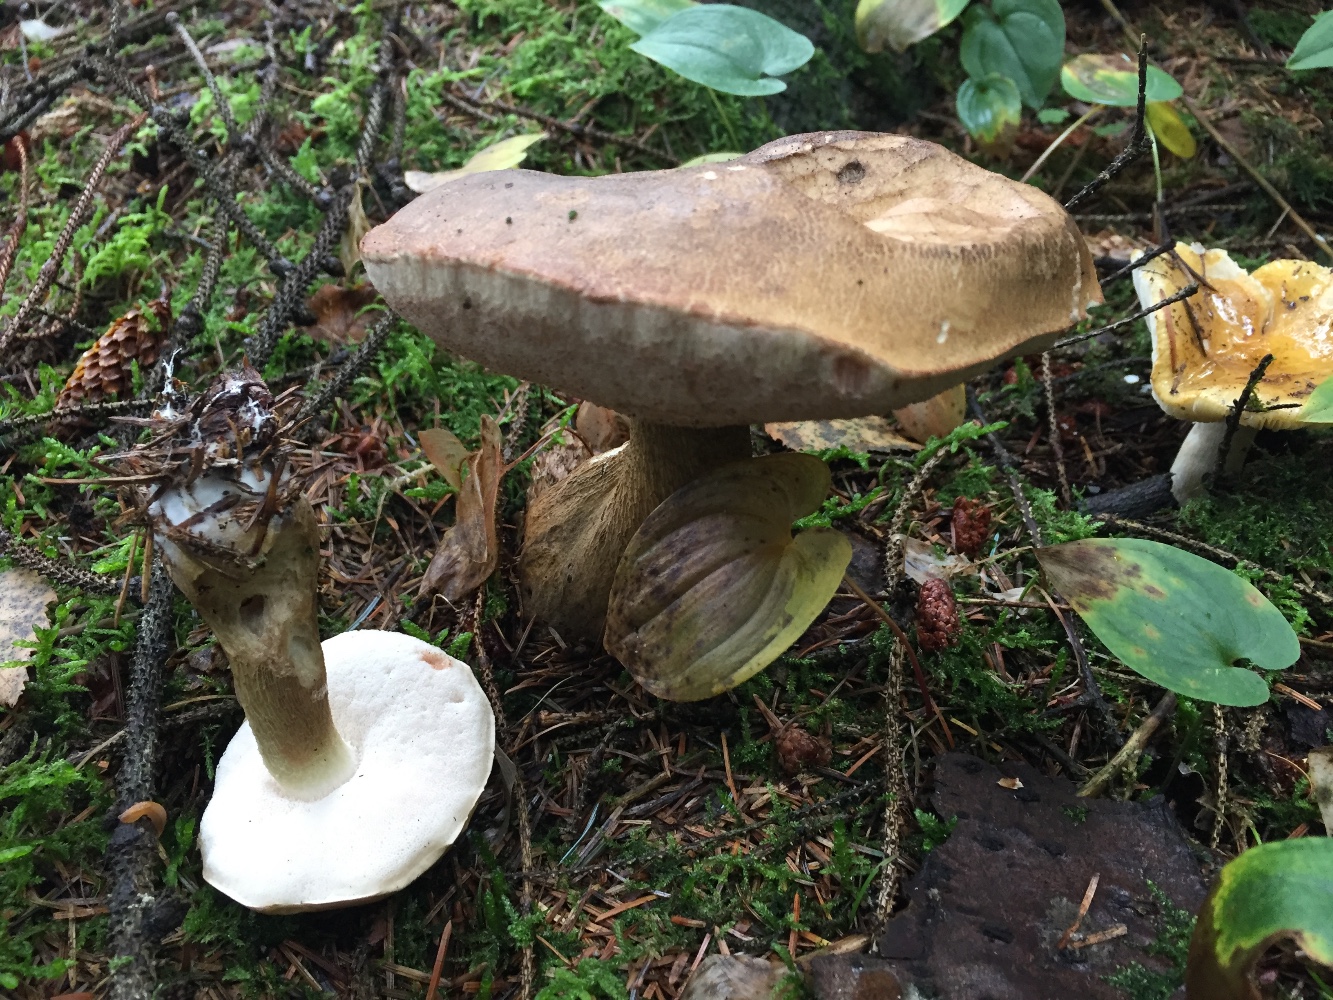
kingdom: Fungi
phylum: Basidiomycota
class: Agaricomycetes
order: Boletales
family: Boletaceae
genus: Tylopilus
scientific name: Tylopilus felleus
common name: galderørhat
